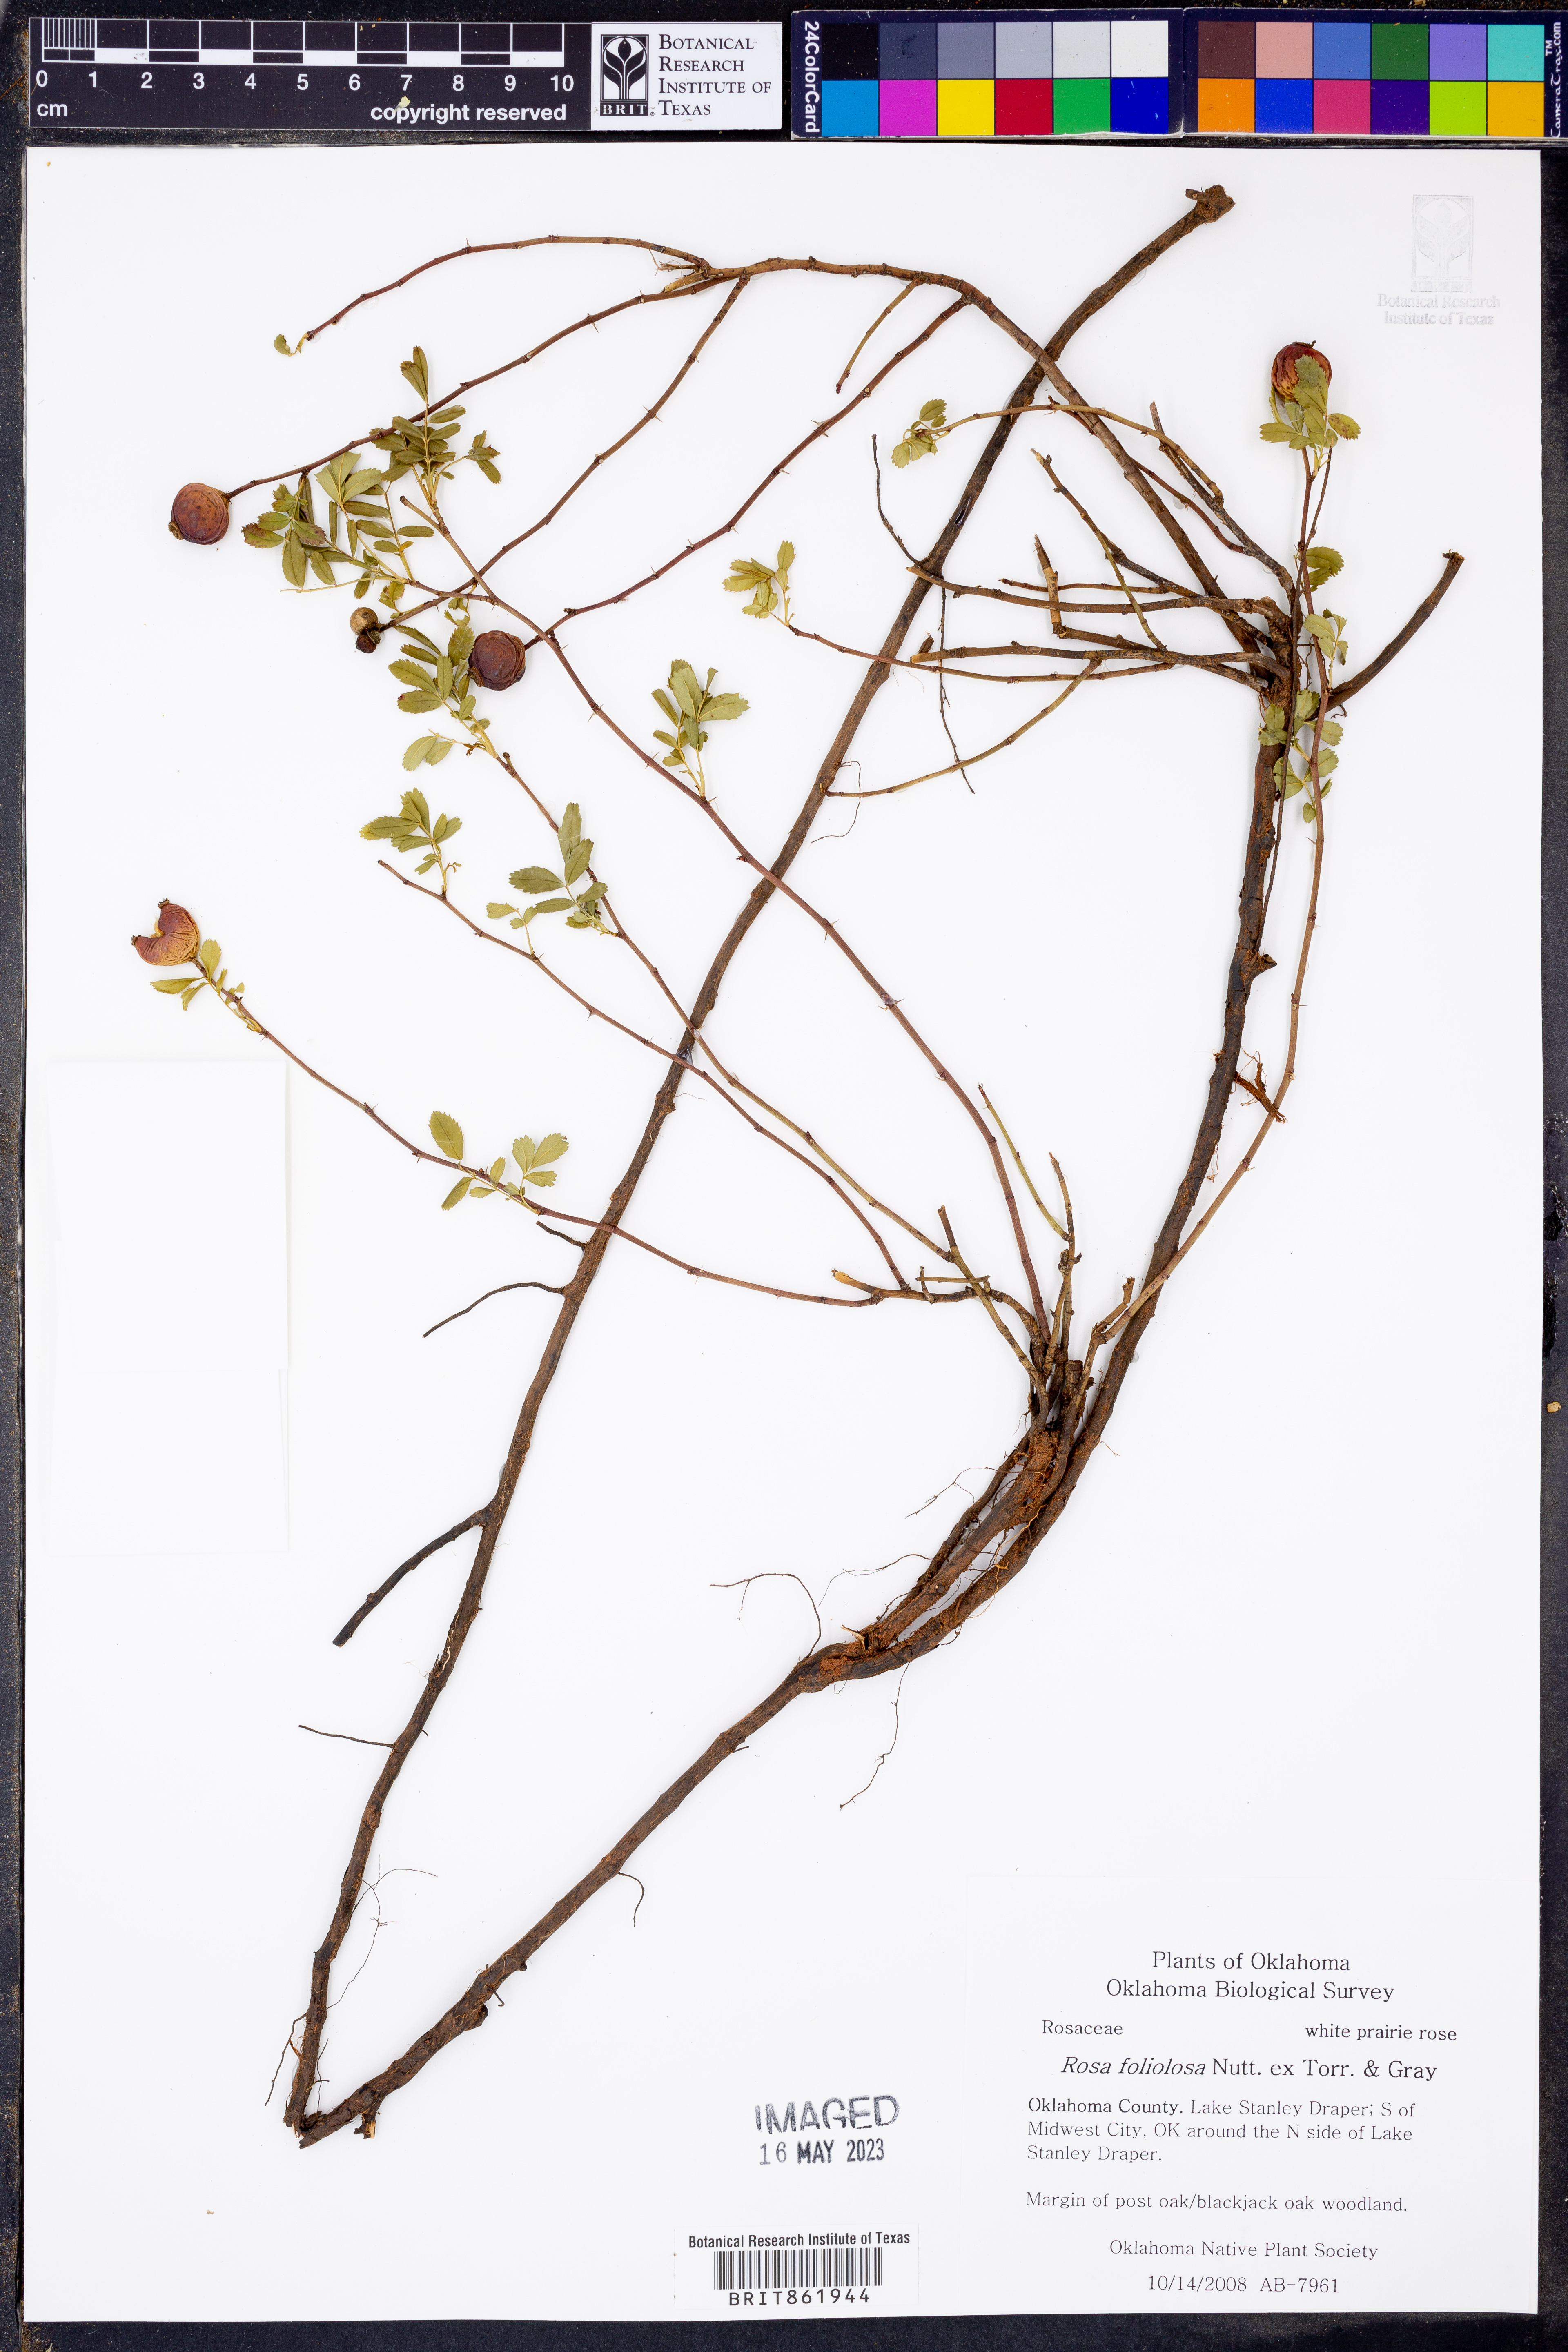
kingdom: Plantae
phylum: Tracheophyta
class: Magnoliopsida
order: Rosales
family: Rosaceae
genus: Rosa
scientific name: Rosa foliolosa
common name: White prairie rose
